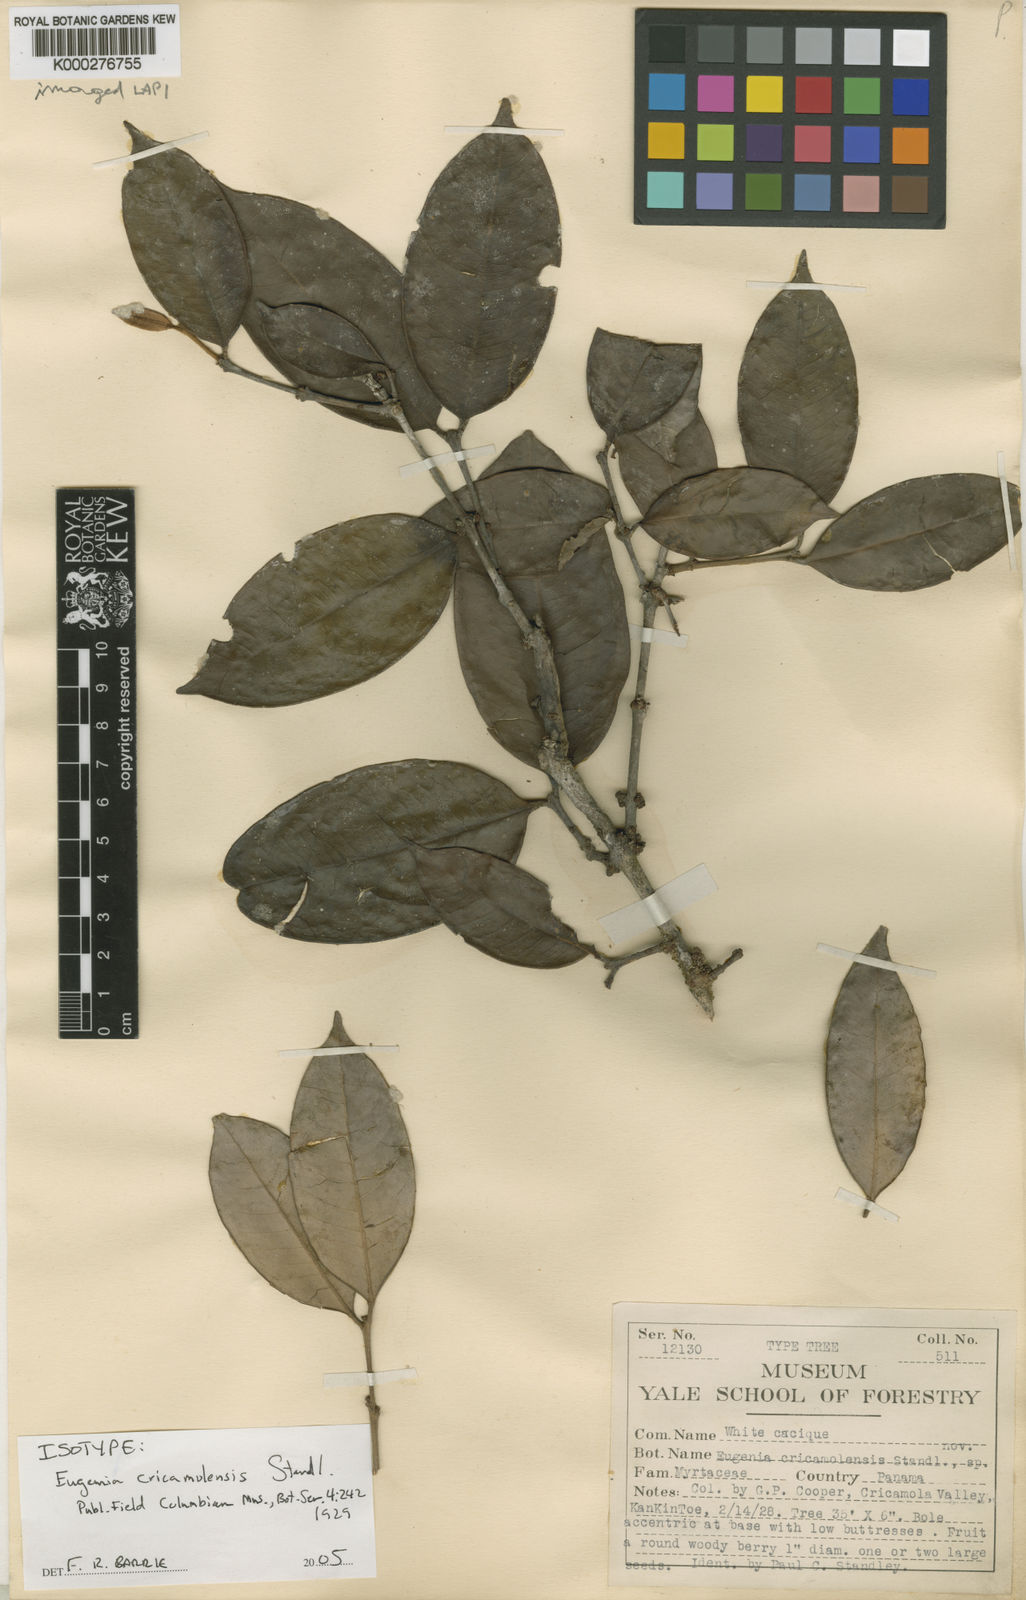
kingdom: Plantae
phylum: Tracheophyta
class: Magnoliopsida
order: Myrtales
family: Myrtaceae
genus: Eugenia
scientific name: Eugenia chrysophyllum
